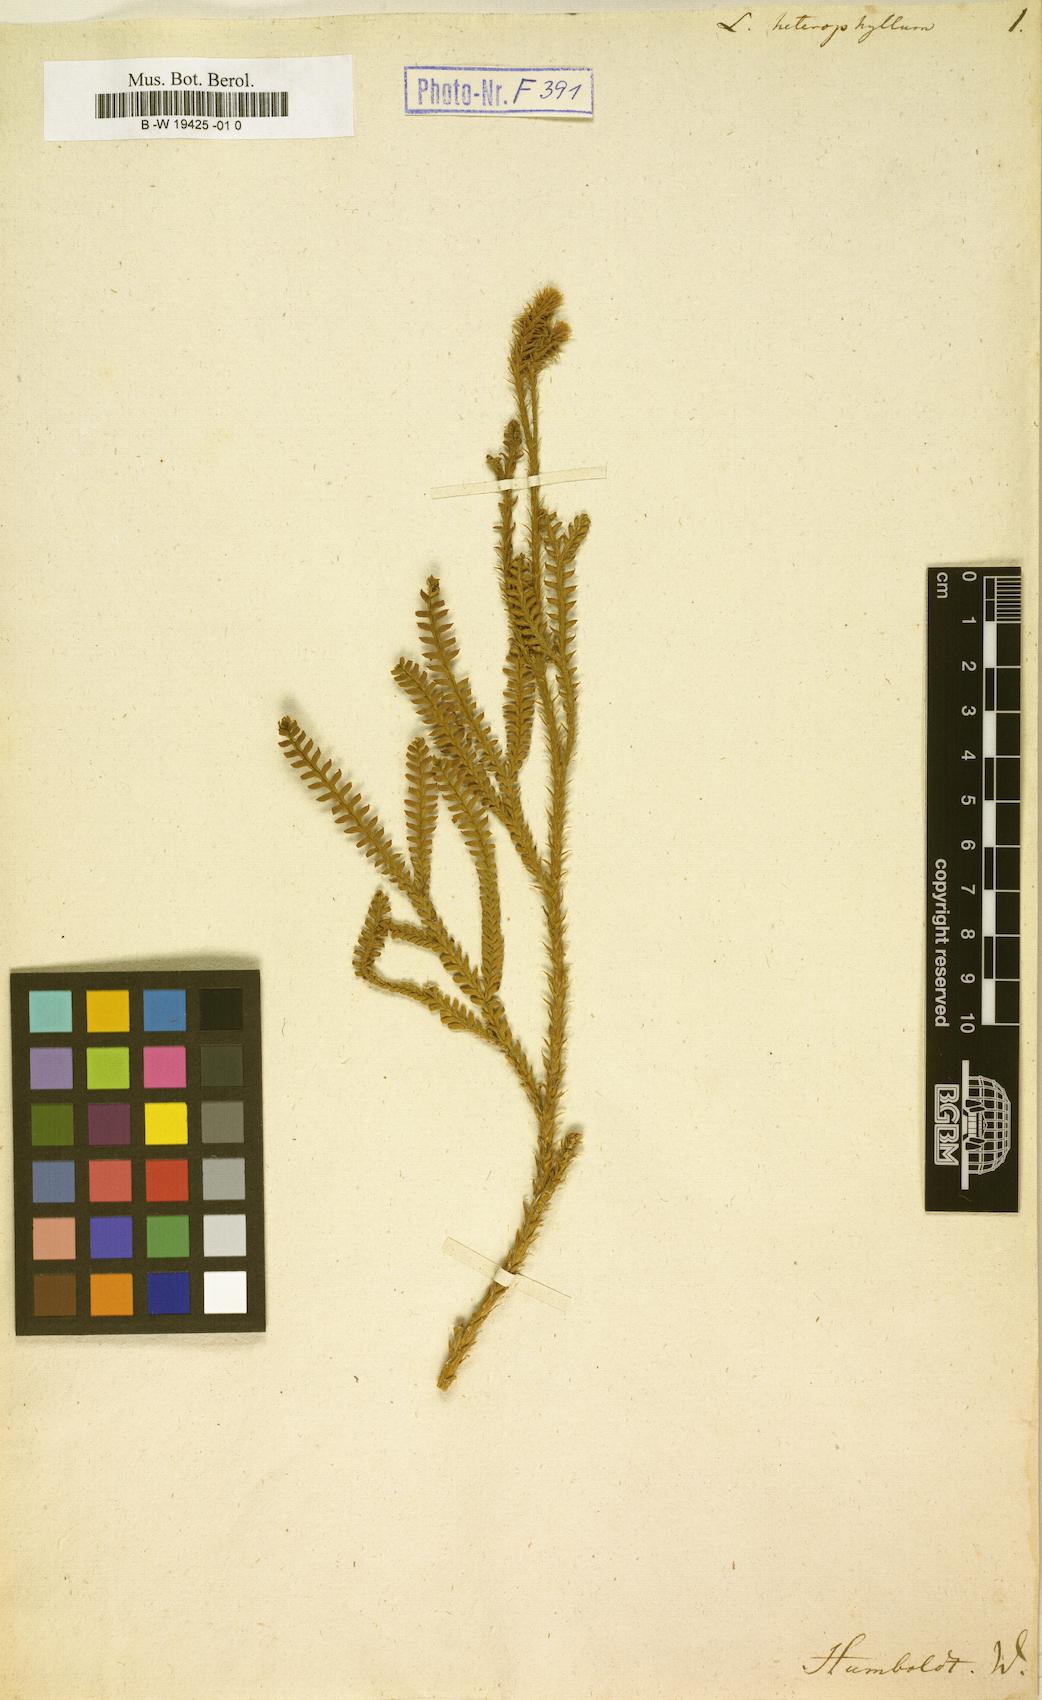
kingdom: Plantae
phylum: Tracheophyta
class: Lycopodiopsida
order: Lycopodiales
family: Lycopodiaceae
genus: Diphasium
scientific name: Diphasium jussiaei
